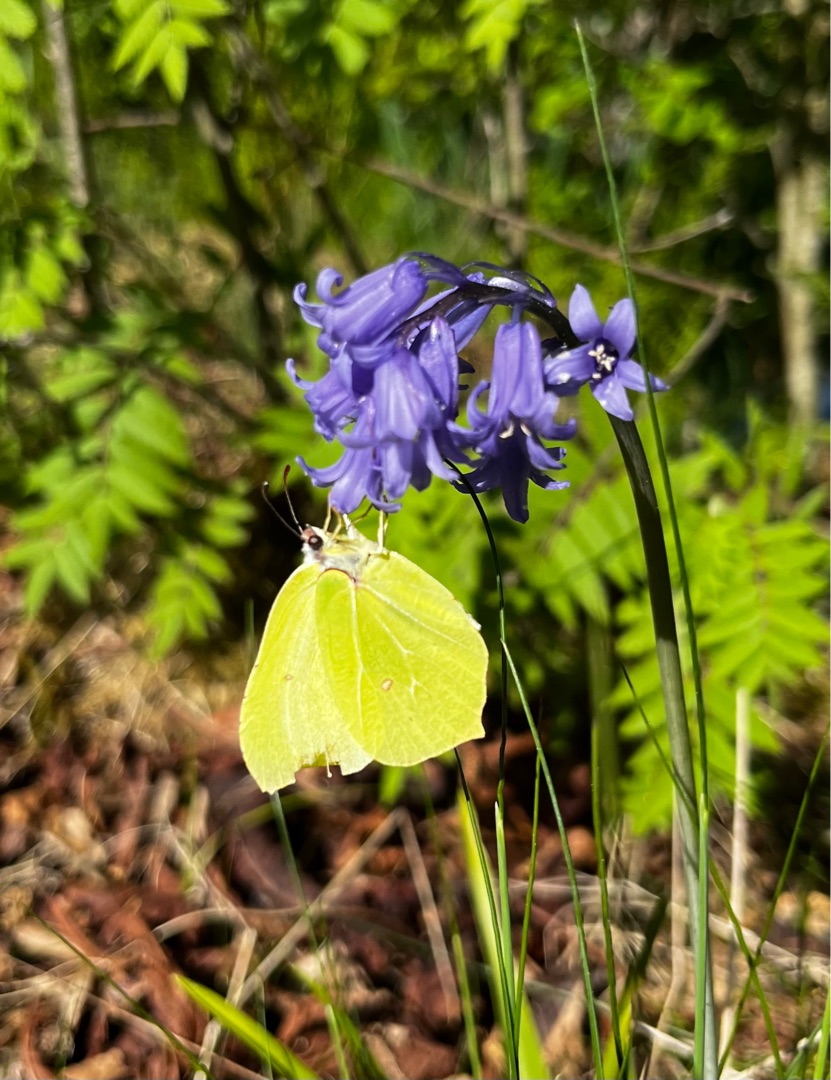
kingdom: Animalia
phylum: Arthropoda
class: Insecta
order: Lepidoptera
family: Pieridae
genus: Gonepteryx
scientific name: Gonepteryx rhamni
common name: Citronsommerfugl
